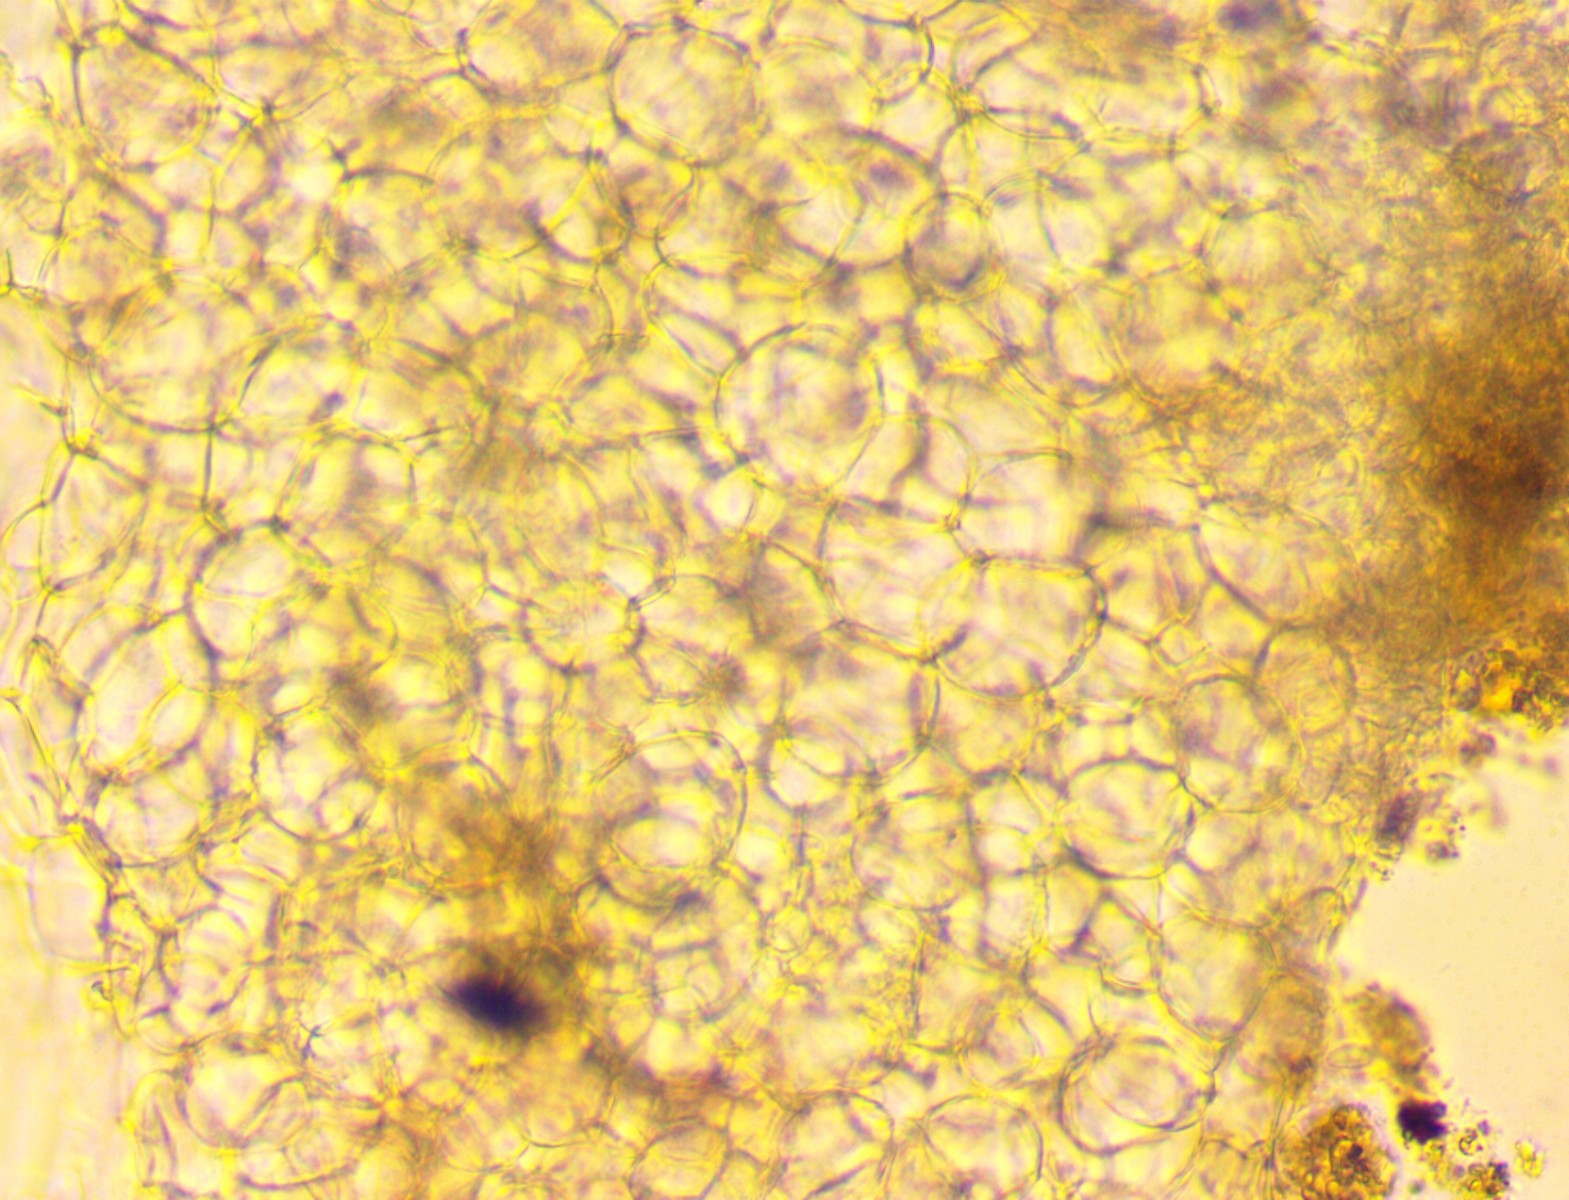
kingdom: Fungi
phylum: Ascomycota
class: Leotiomycetes
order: Helotiales
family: Helotiaceae
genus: Hymenoscyphus
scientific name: Hymenoscyphus imberbis
